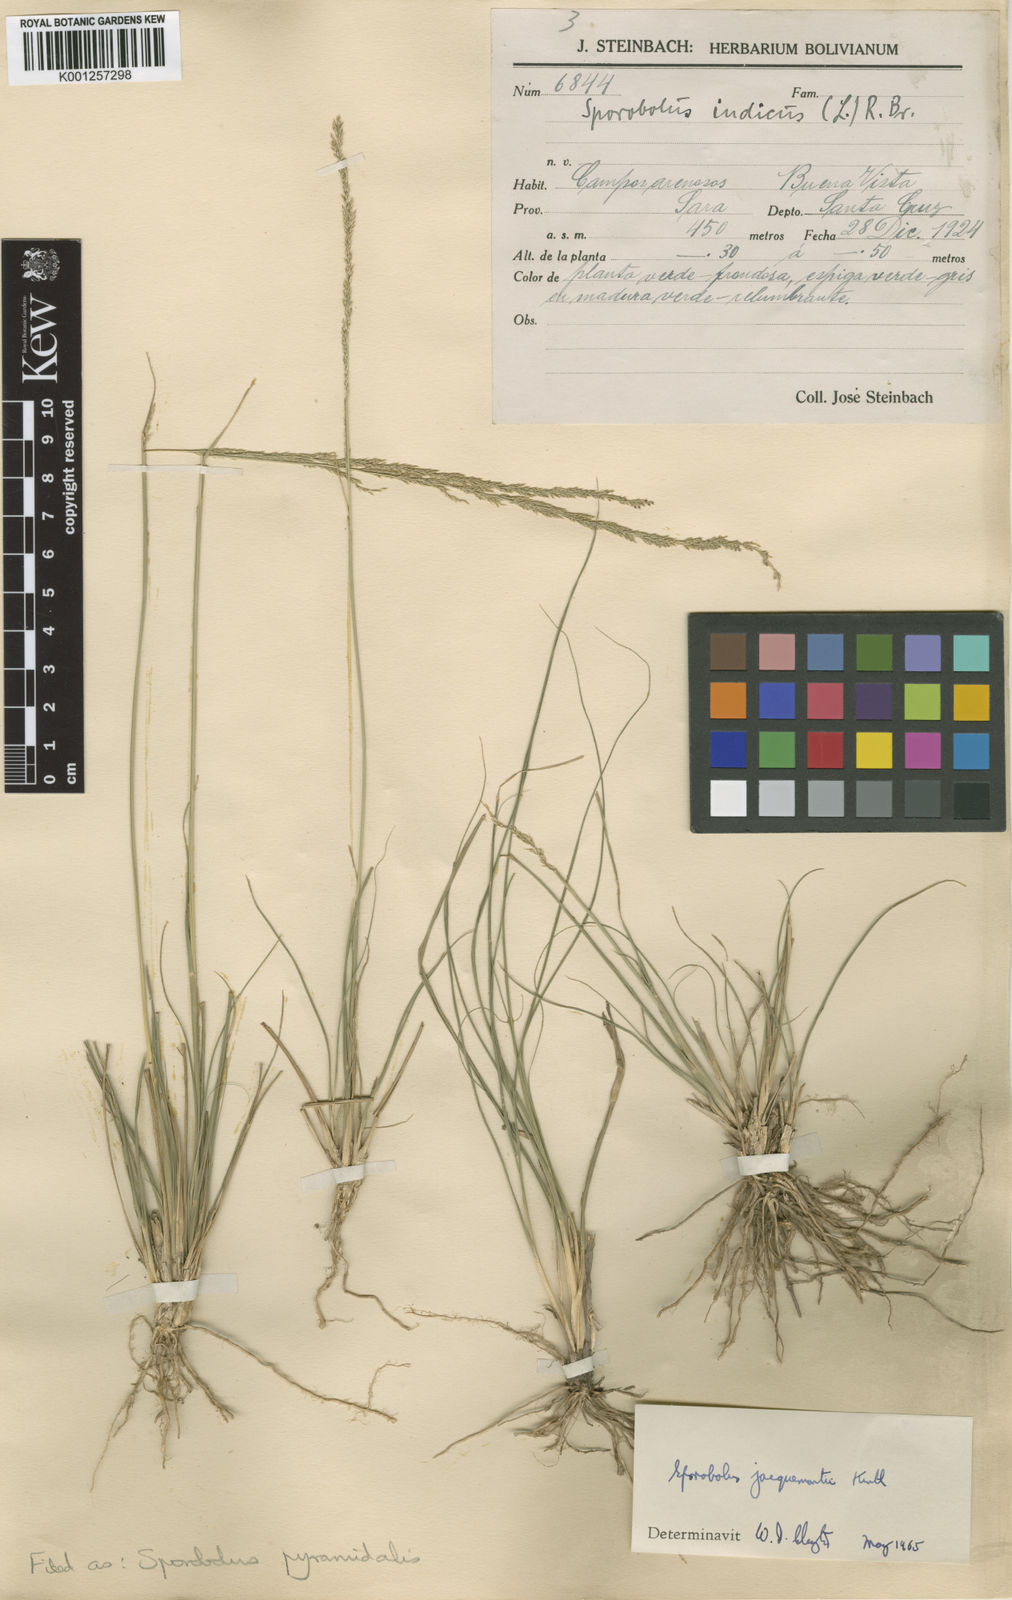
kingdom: Plantae
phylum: Tracheophyta
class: Liliopsida
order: Poales
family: Poaceae
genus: Sporobolus
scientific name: Sporobolus pyramidalis
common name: West indian dropseed
